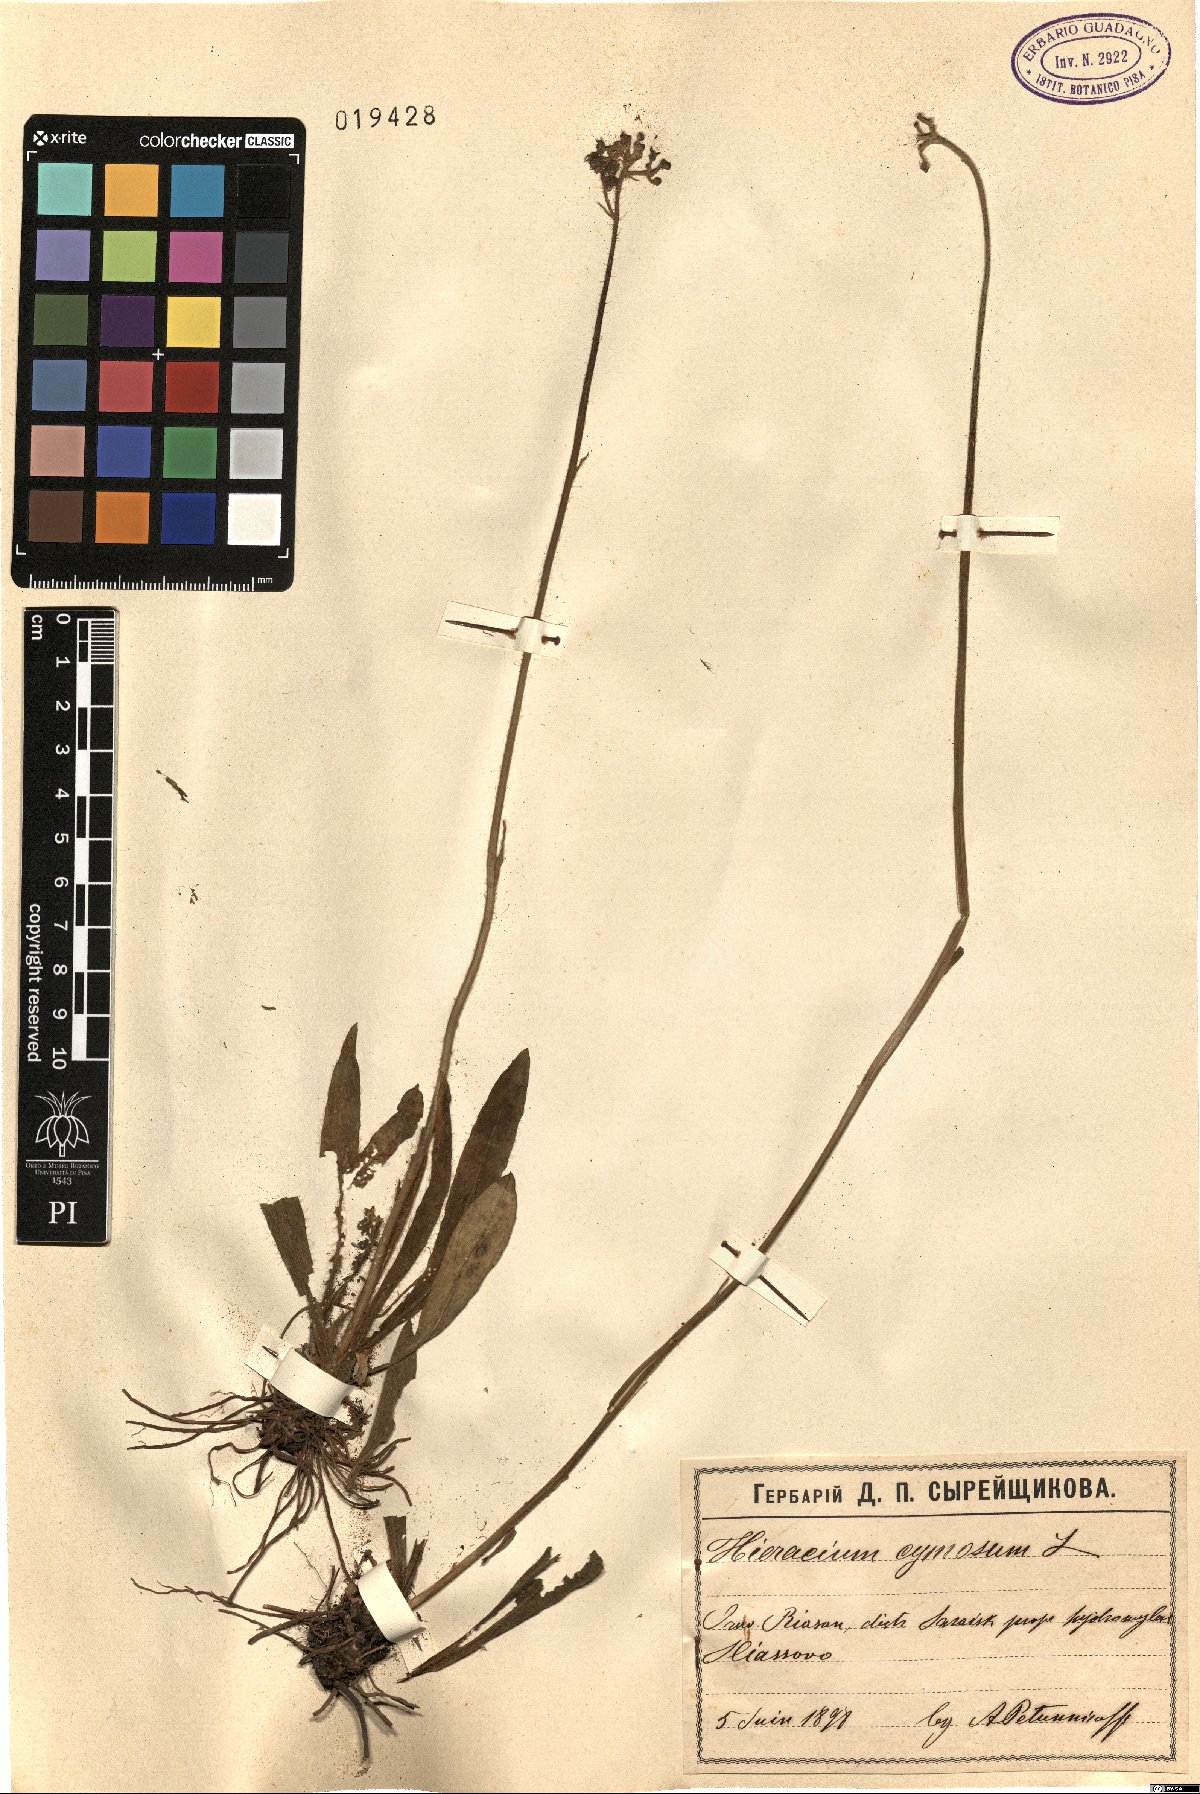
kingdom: Plantae
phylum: Tracheophyta
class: Magnoliopsida
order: Asterales
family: Asteraceae
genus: Pilosella
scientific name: Pilosella cymosa
